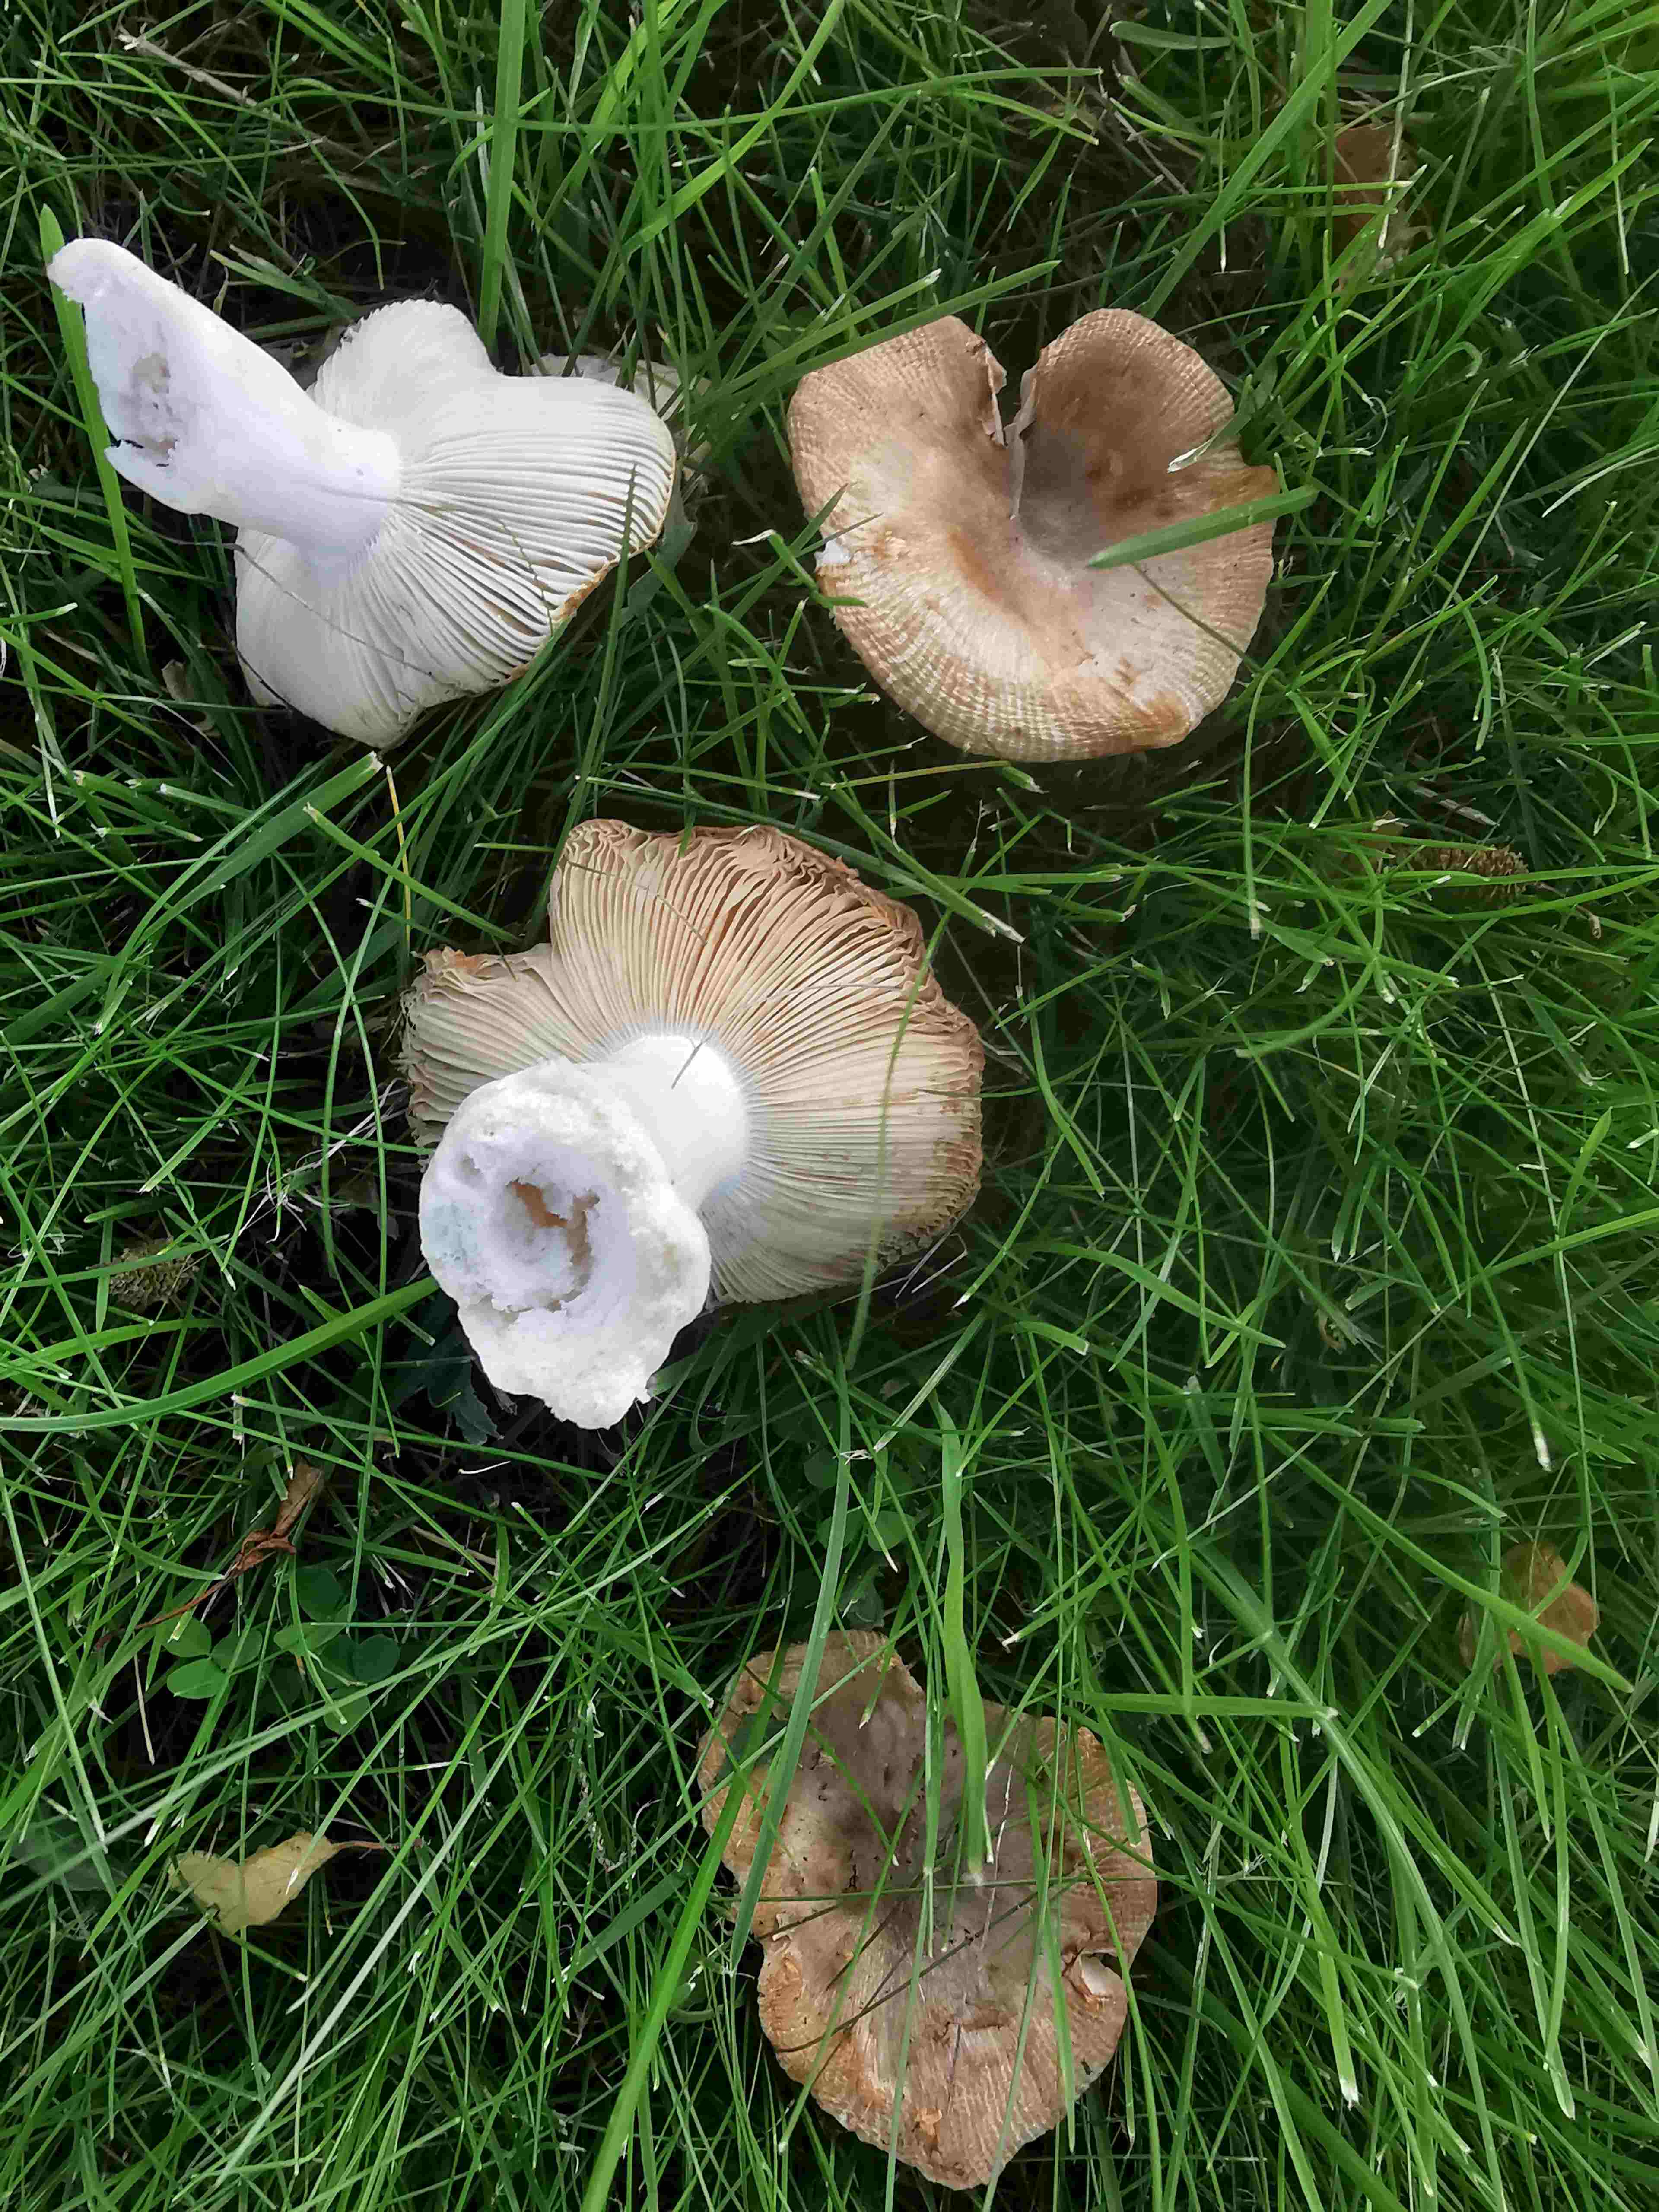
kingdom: Fungi
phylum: Basidiomycota
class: Agaricomycetes
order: Russulales
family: Russulaceae
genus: Russula
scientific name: Russula recondita
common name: mild kam-skørhat
